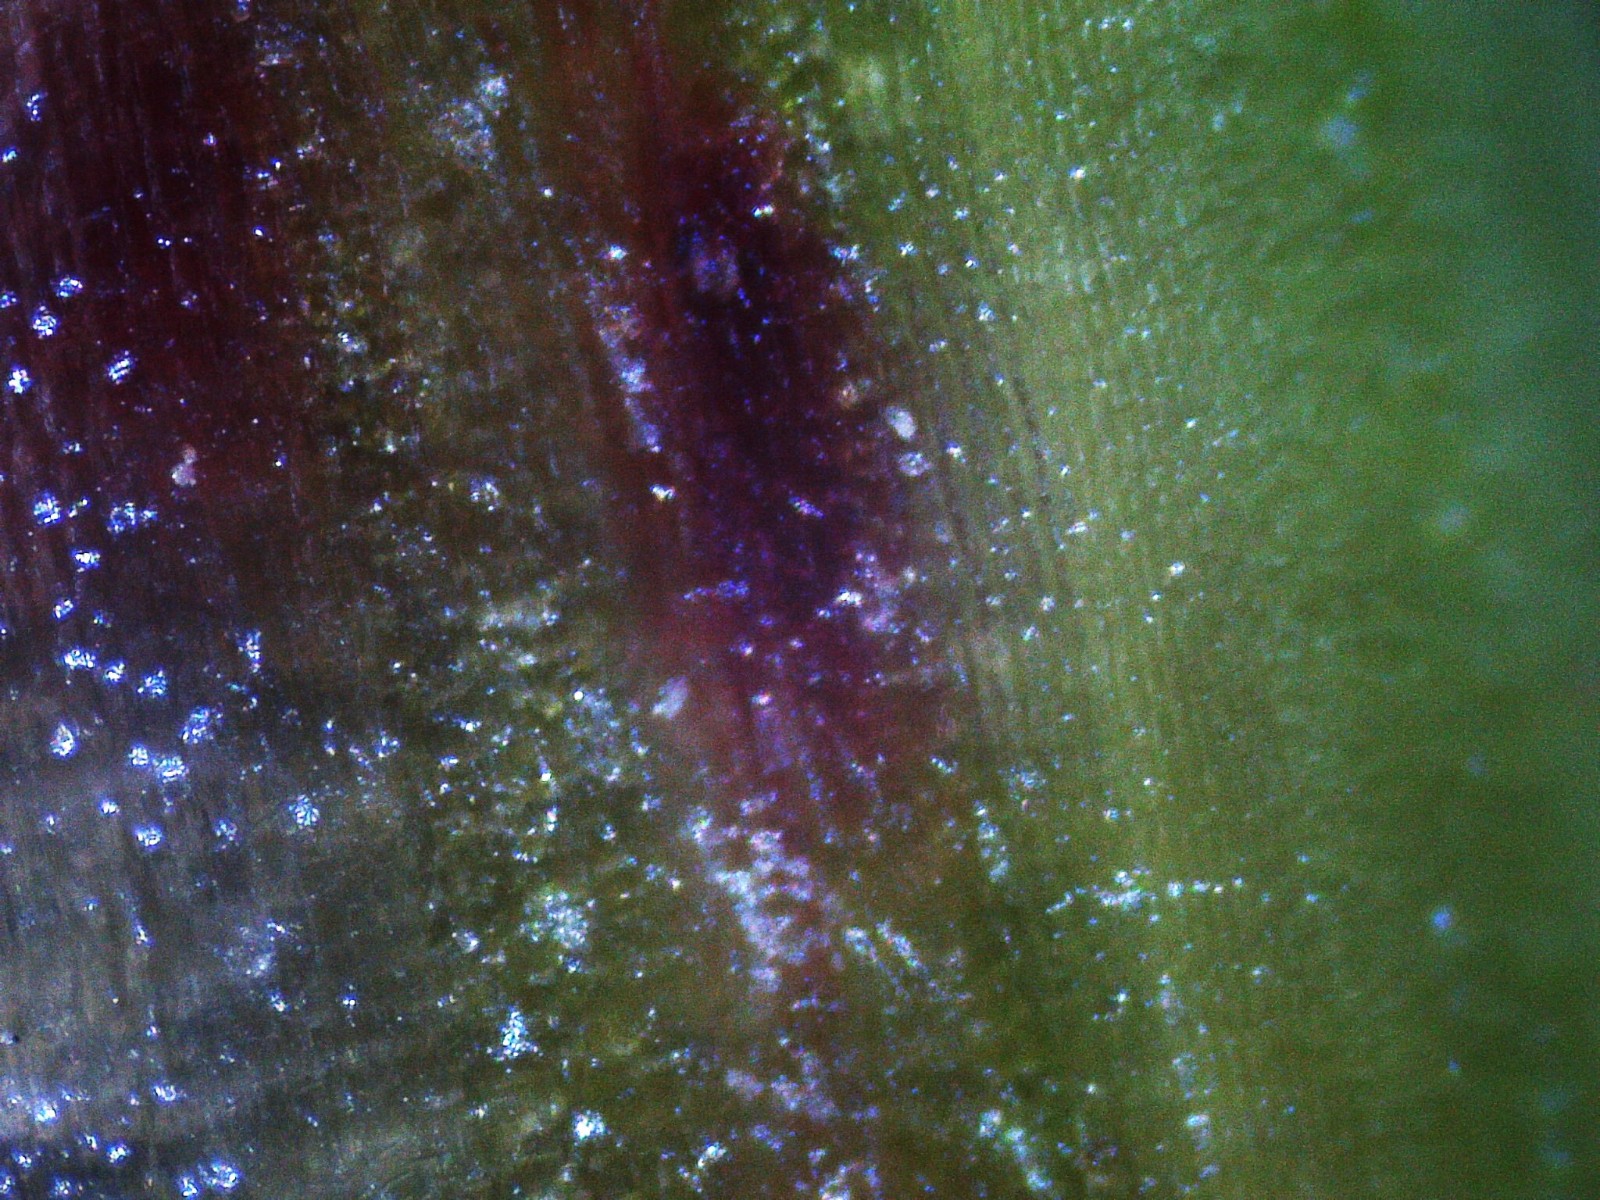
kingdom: Fungi
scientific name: Fungi
